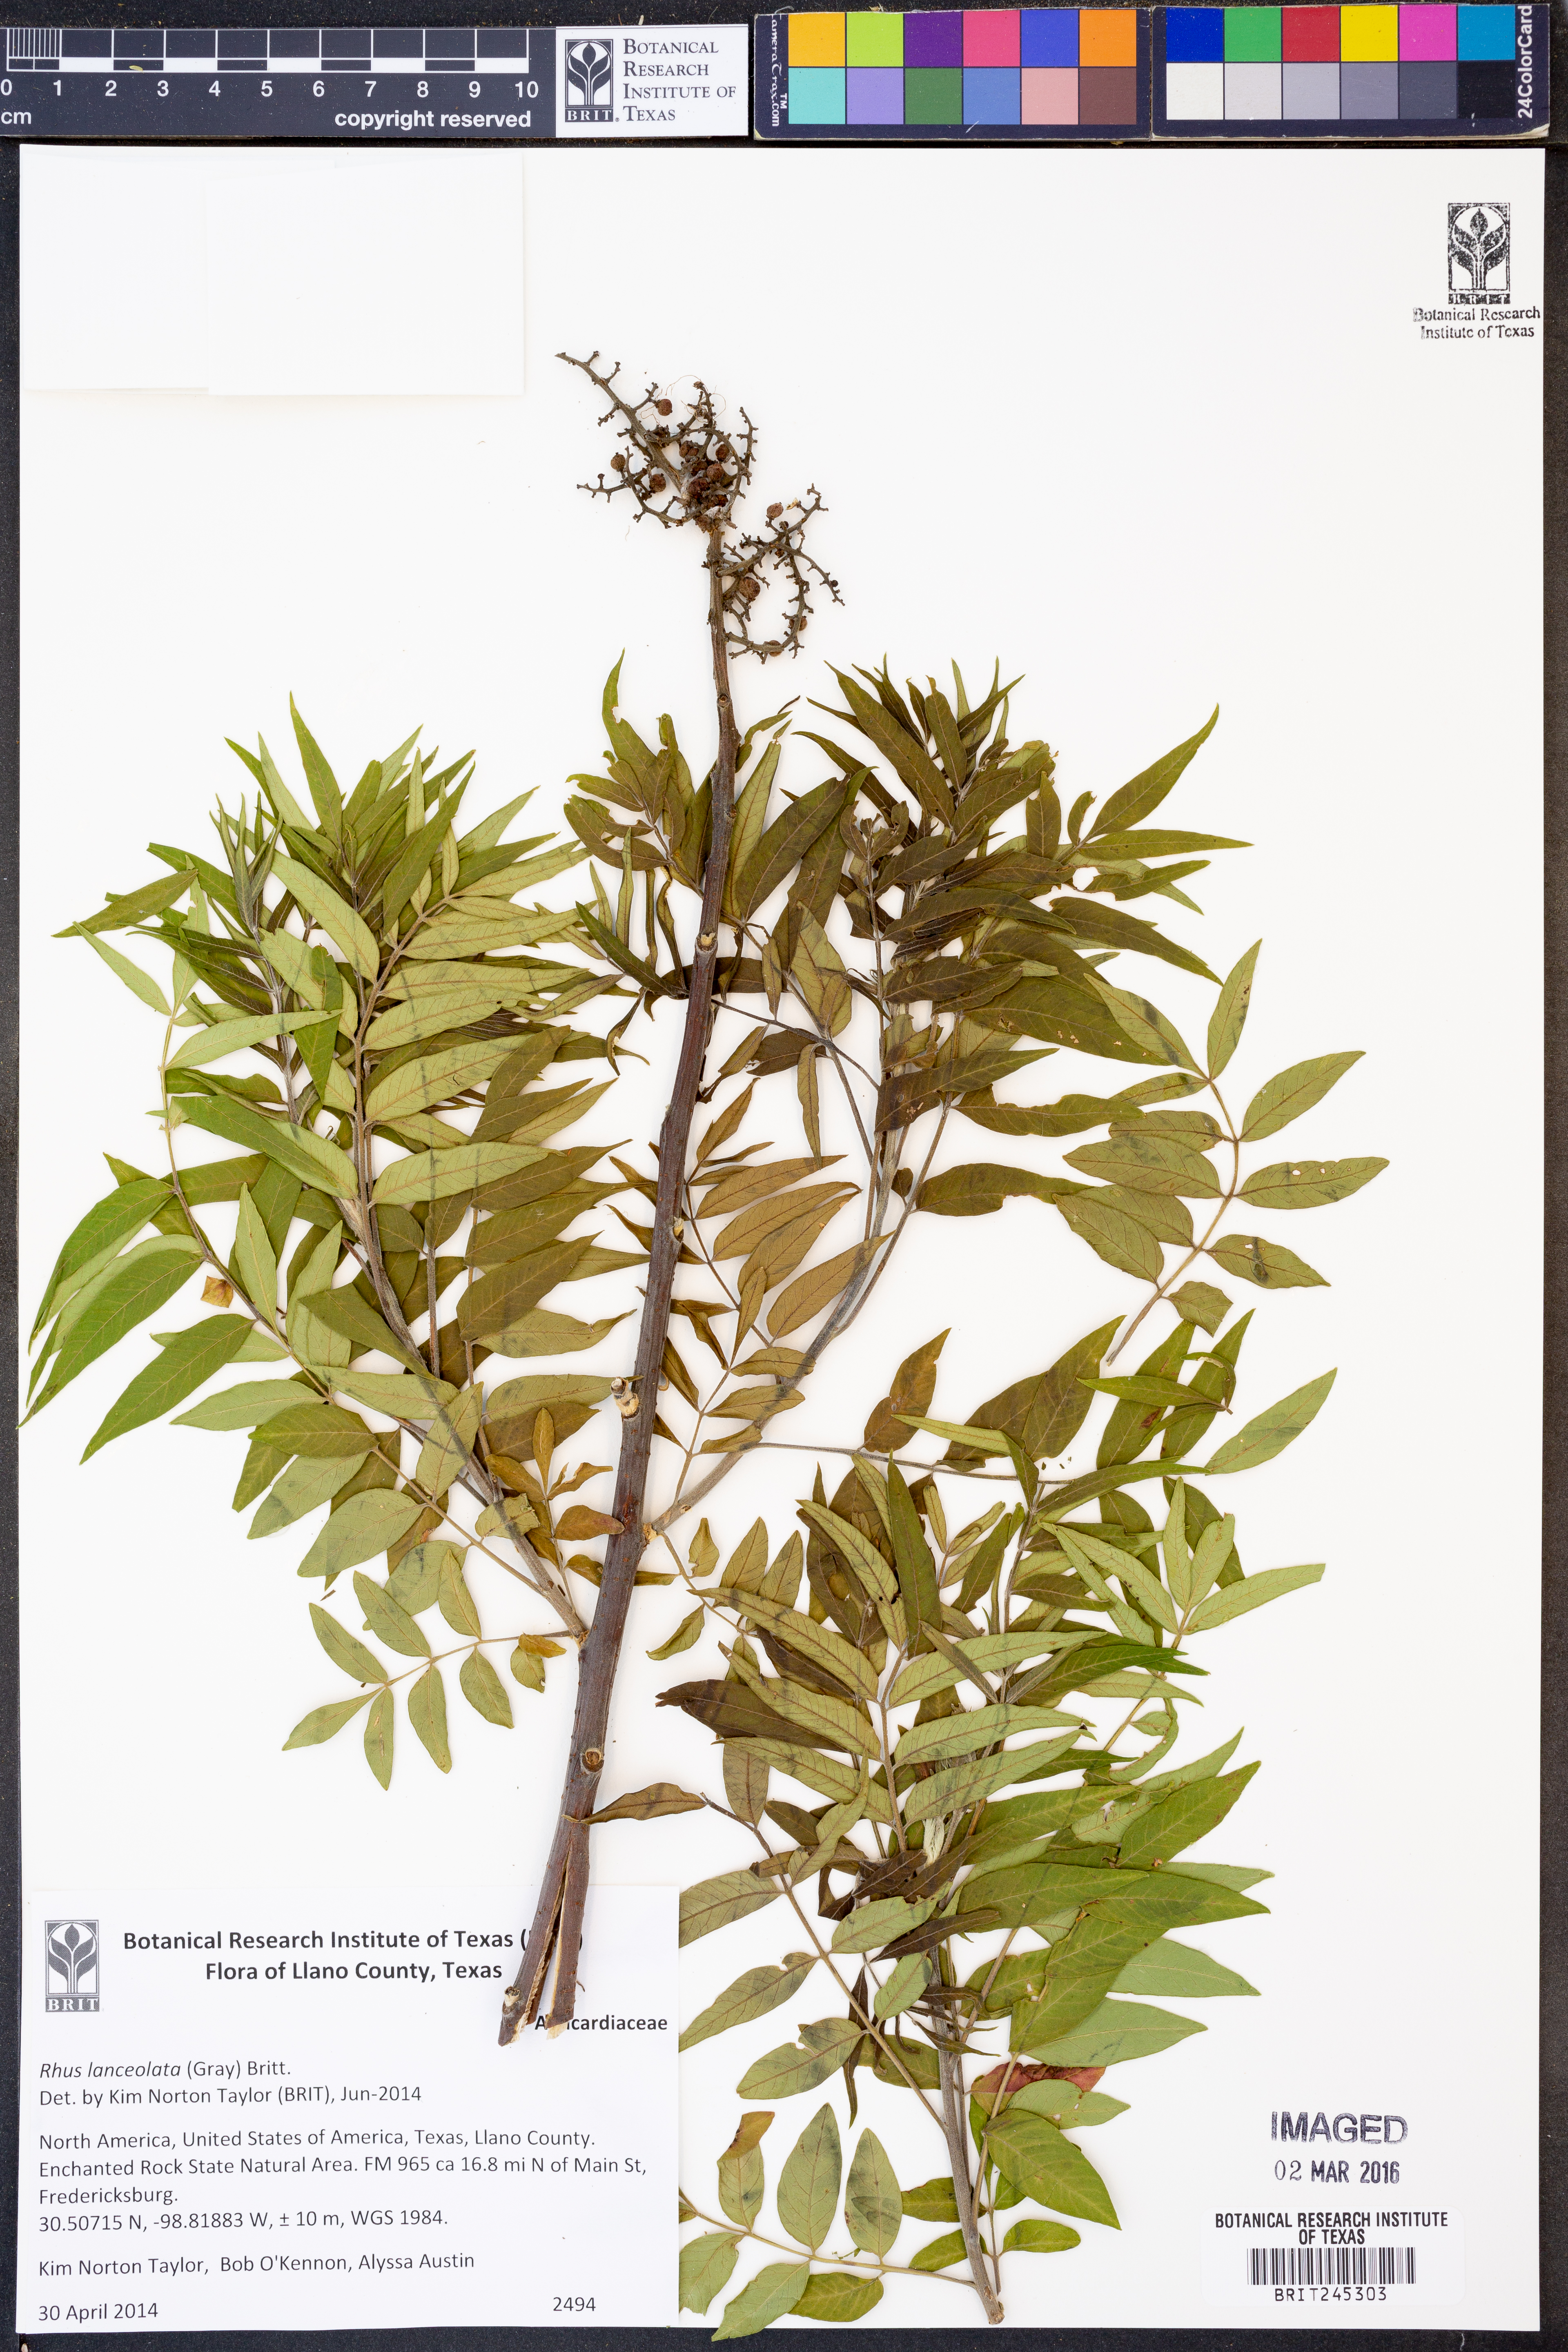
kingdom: Plantae
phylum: Tracheophyta
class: Magnoliopsida
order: Sapindales
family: Anacardiaceae
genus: Rhus
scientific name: Rhus lanceolata
